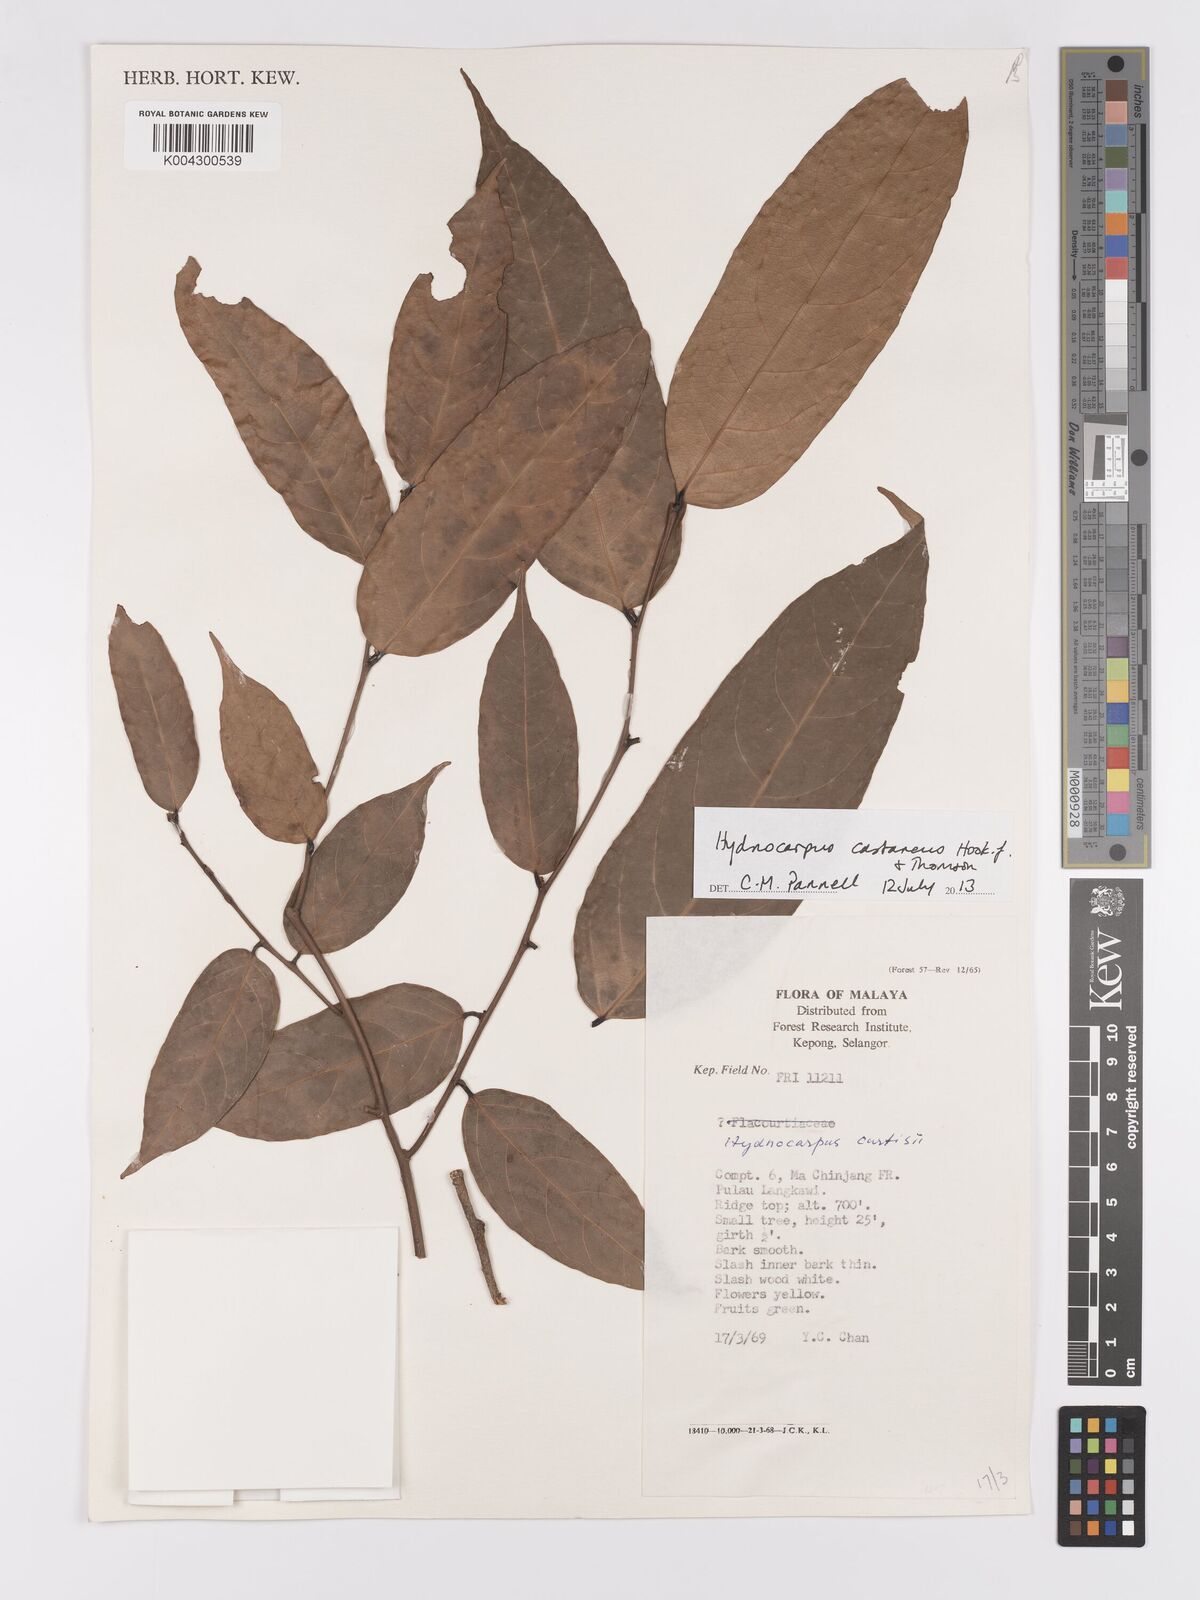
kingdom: Plantae
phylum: Tracheophyta
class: Magnoliopsida
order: Malpighiales
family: Achariaceae
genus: Hydnocarpus
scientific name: Hydnocarpus curtisii
